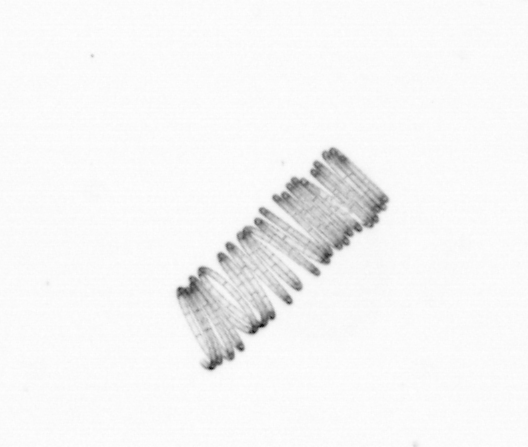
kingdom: Chromista
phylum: Ochrophyta
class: Bacillariophyceae
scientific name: Bacillariophyceae
